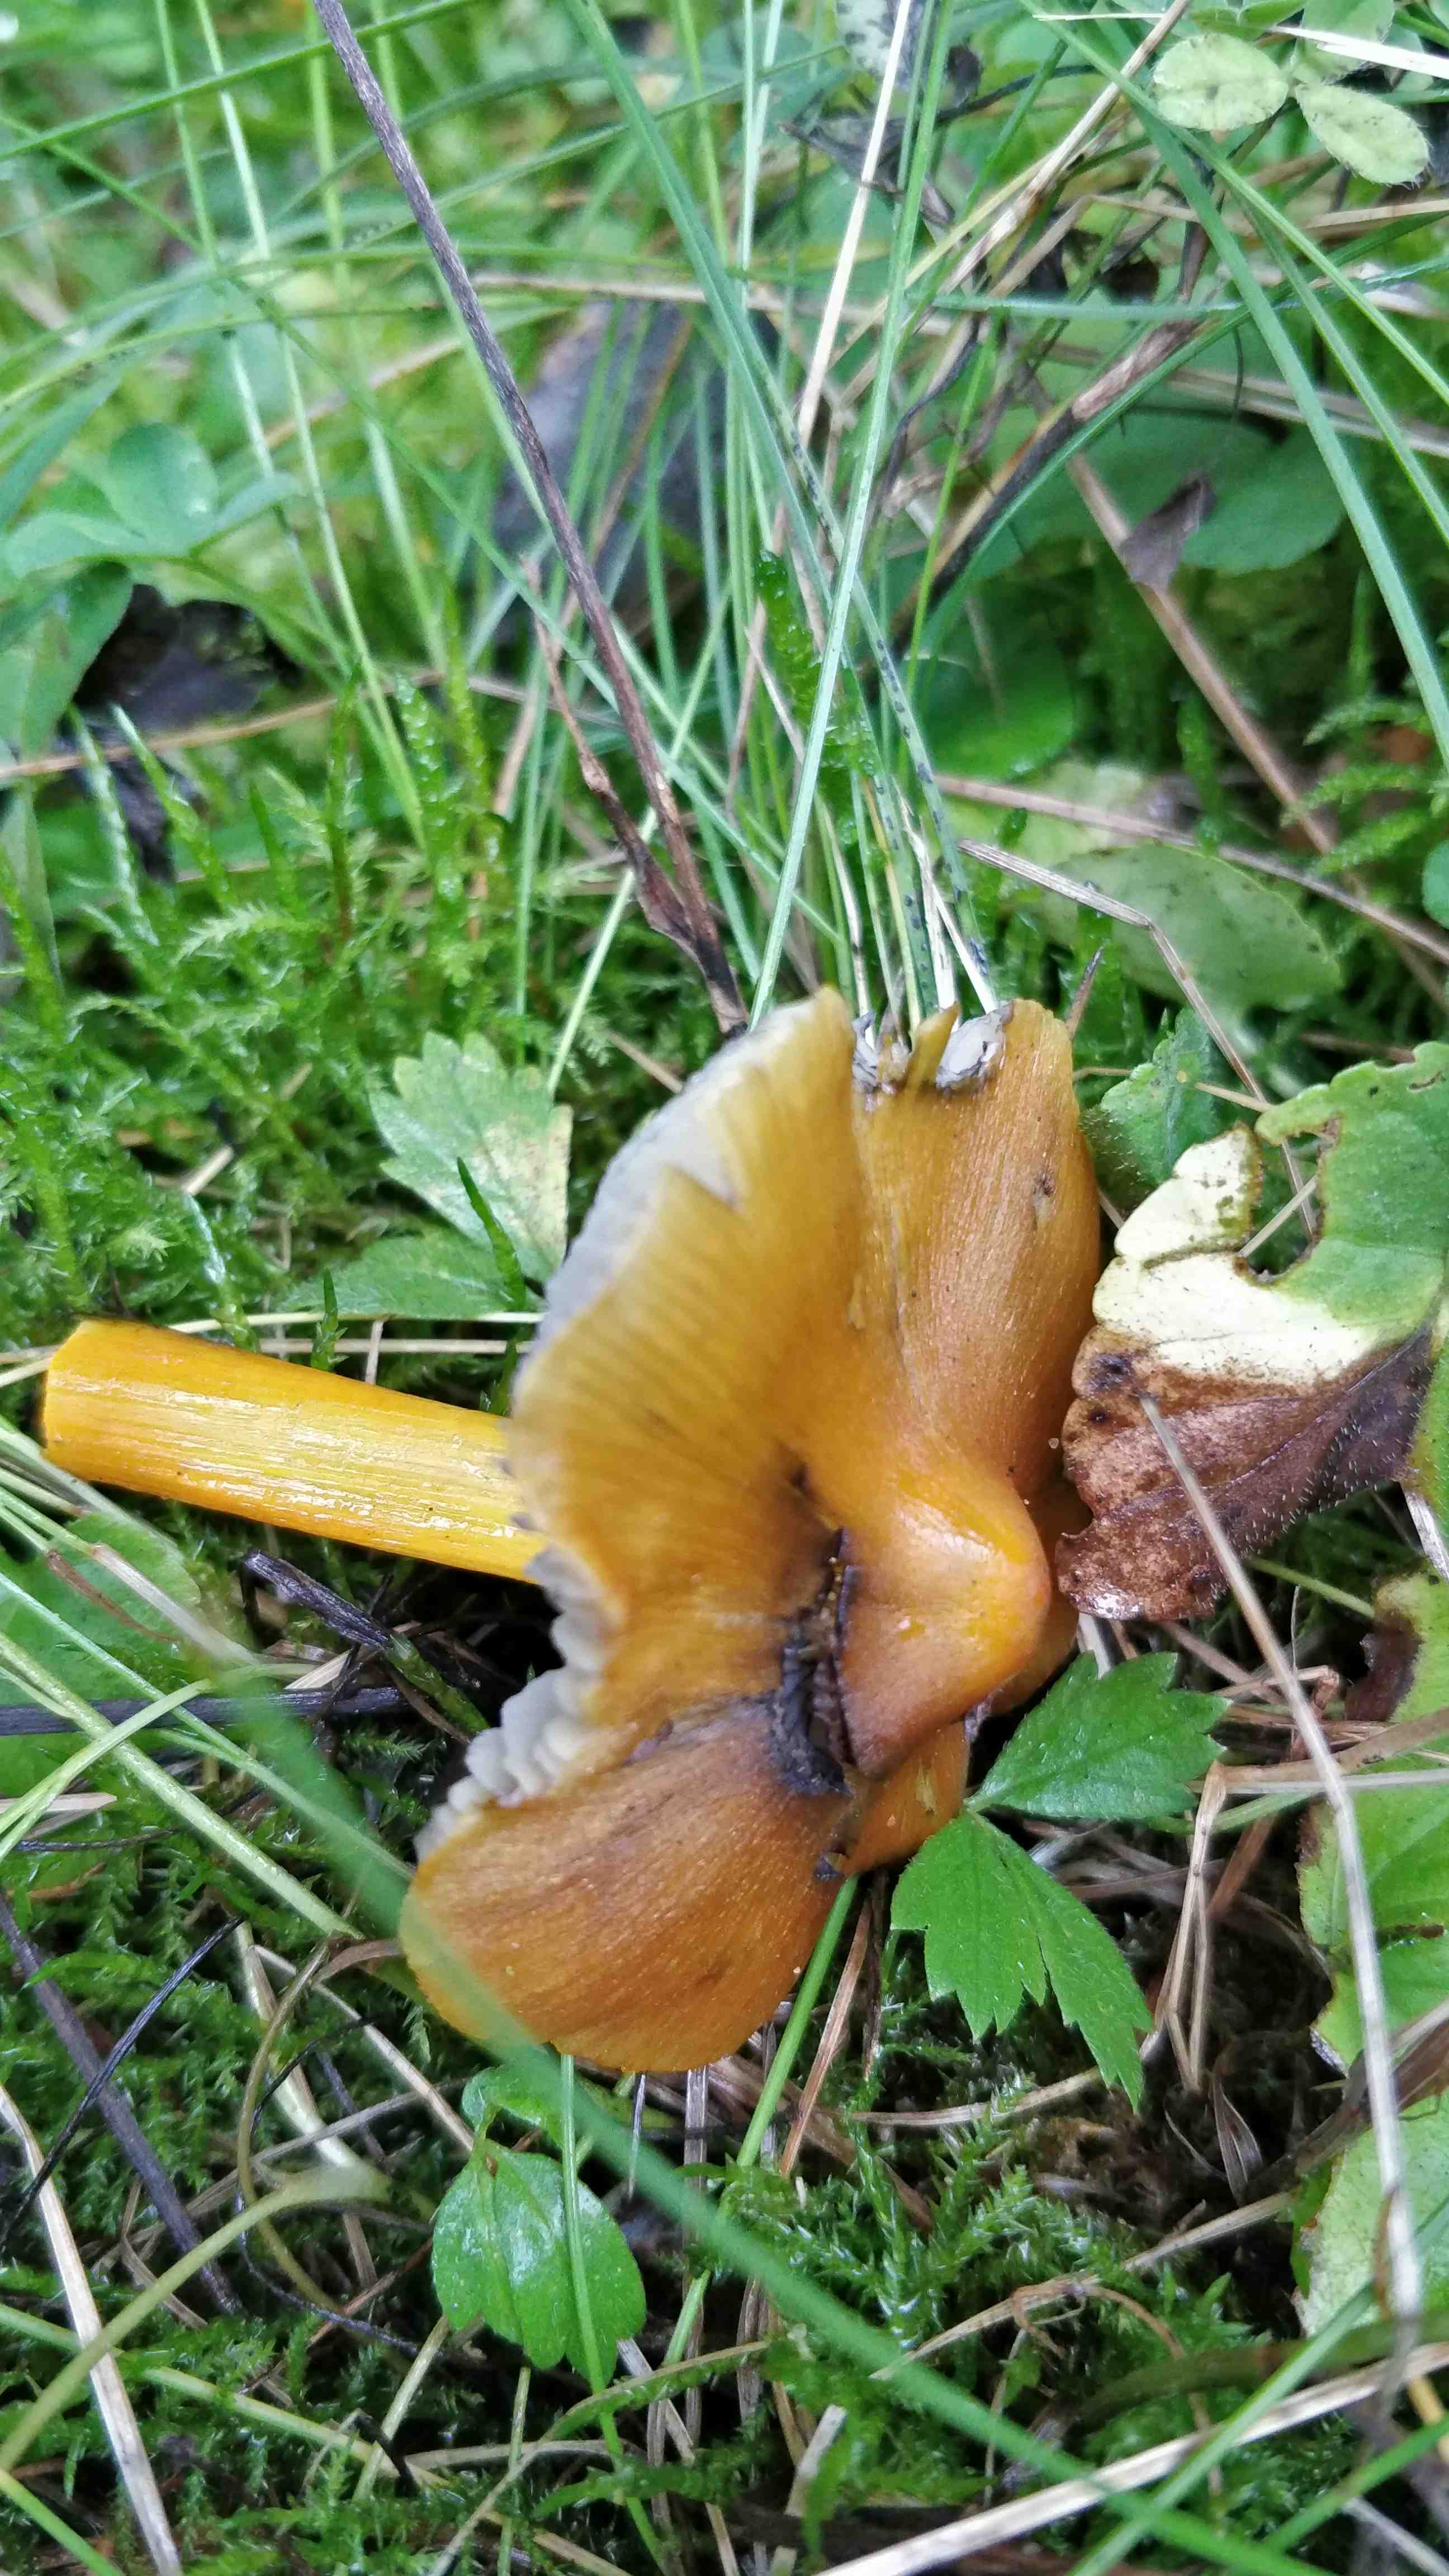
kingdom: Fungi
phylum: Basidiomycota
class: Agaricomycetes
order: Agaricales
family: Hygrophoraceae
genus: Hygrocybe
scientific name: Hygrocybe conica
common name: kegle-vokshat
